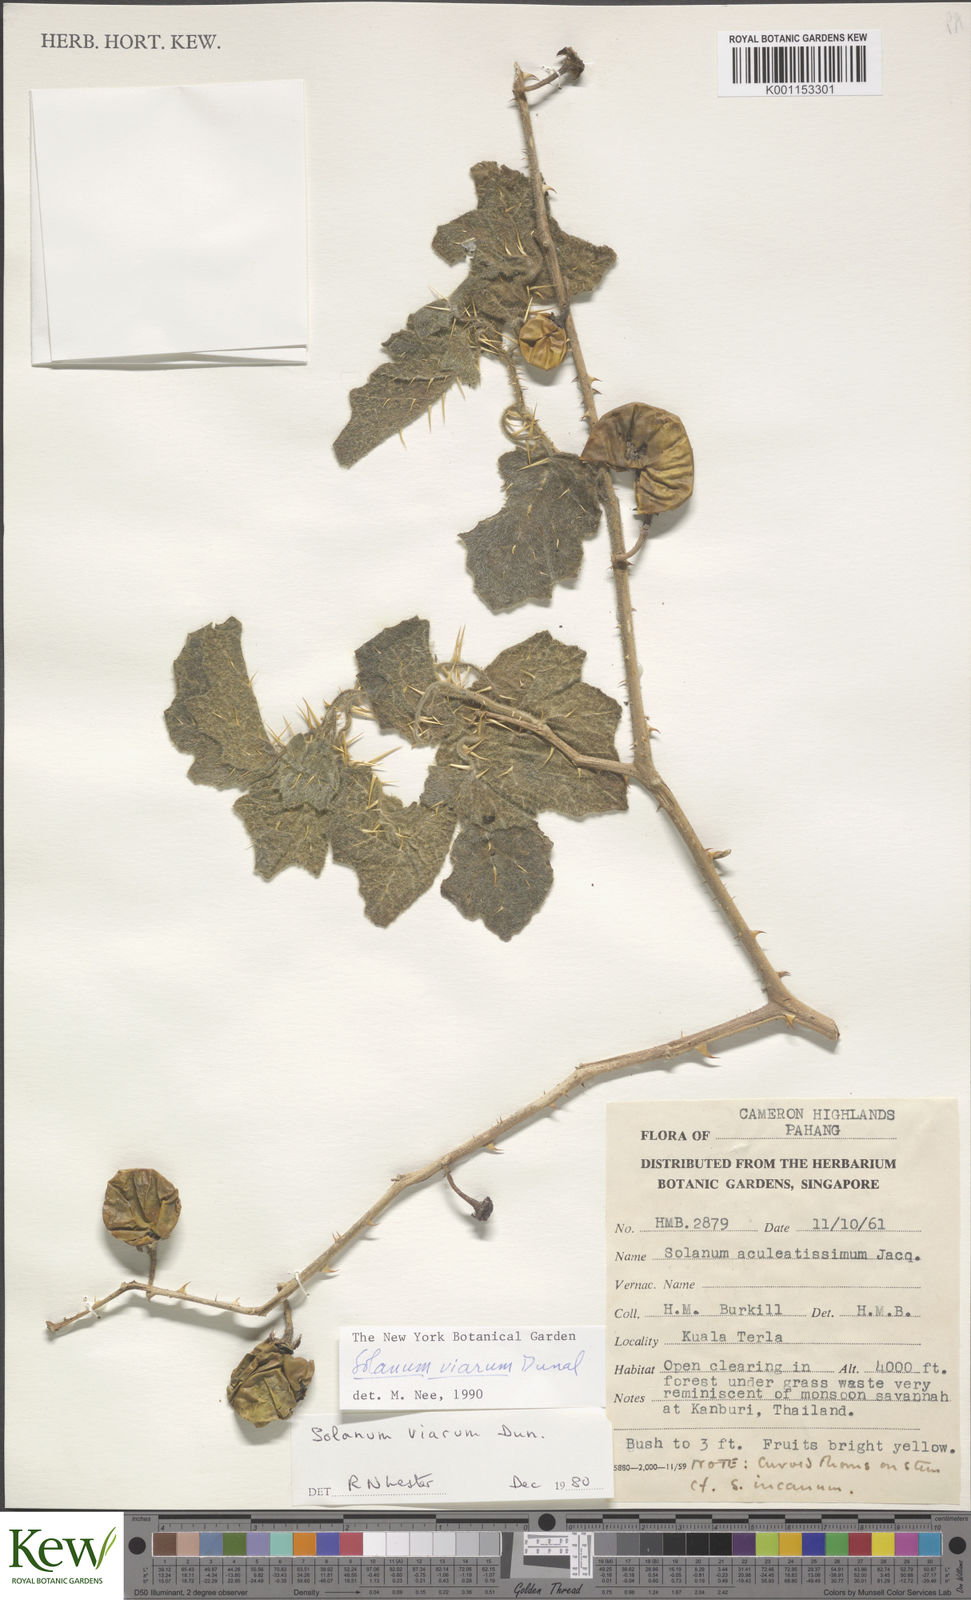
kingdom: Plantae
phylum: Tracheophyta
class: Magnoliopsida
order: Solanales
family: Solanaceae
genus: Solanum
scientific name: Solanum violaceum
